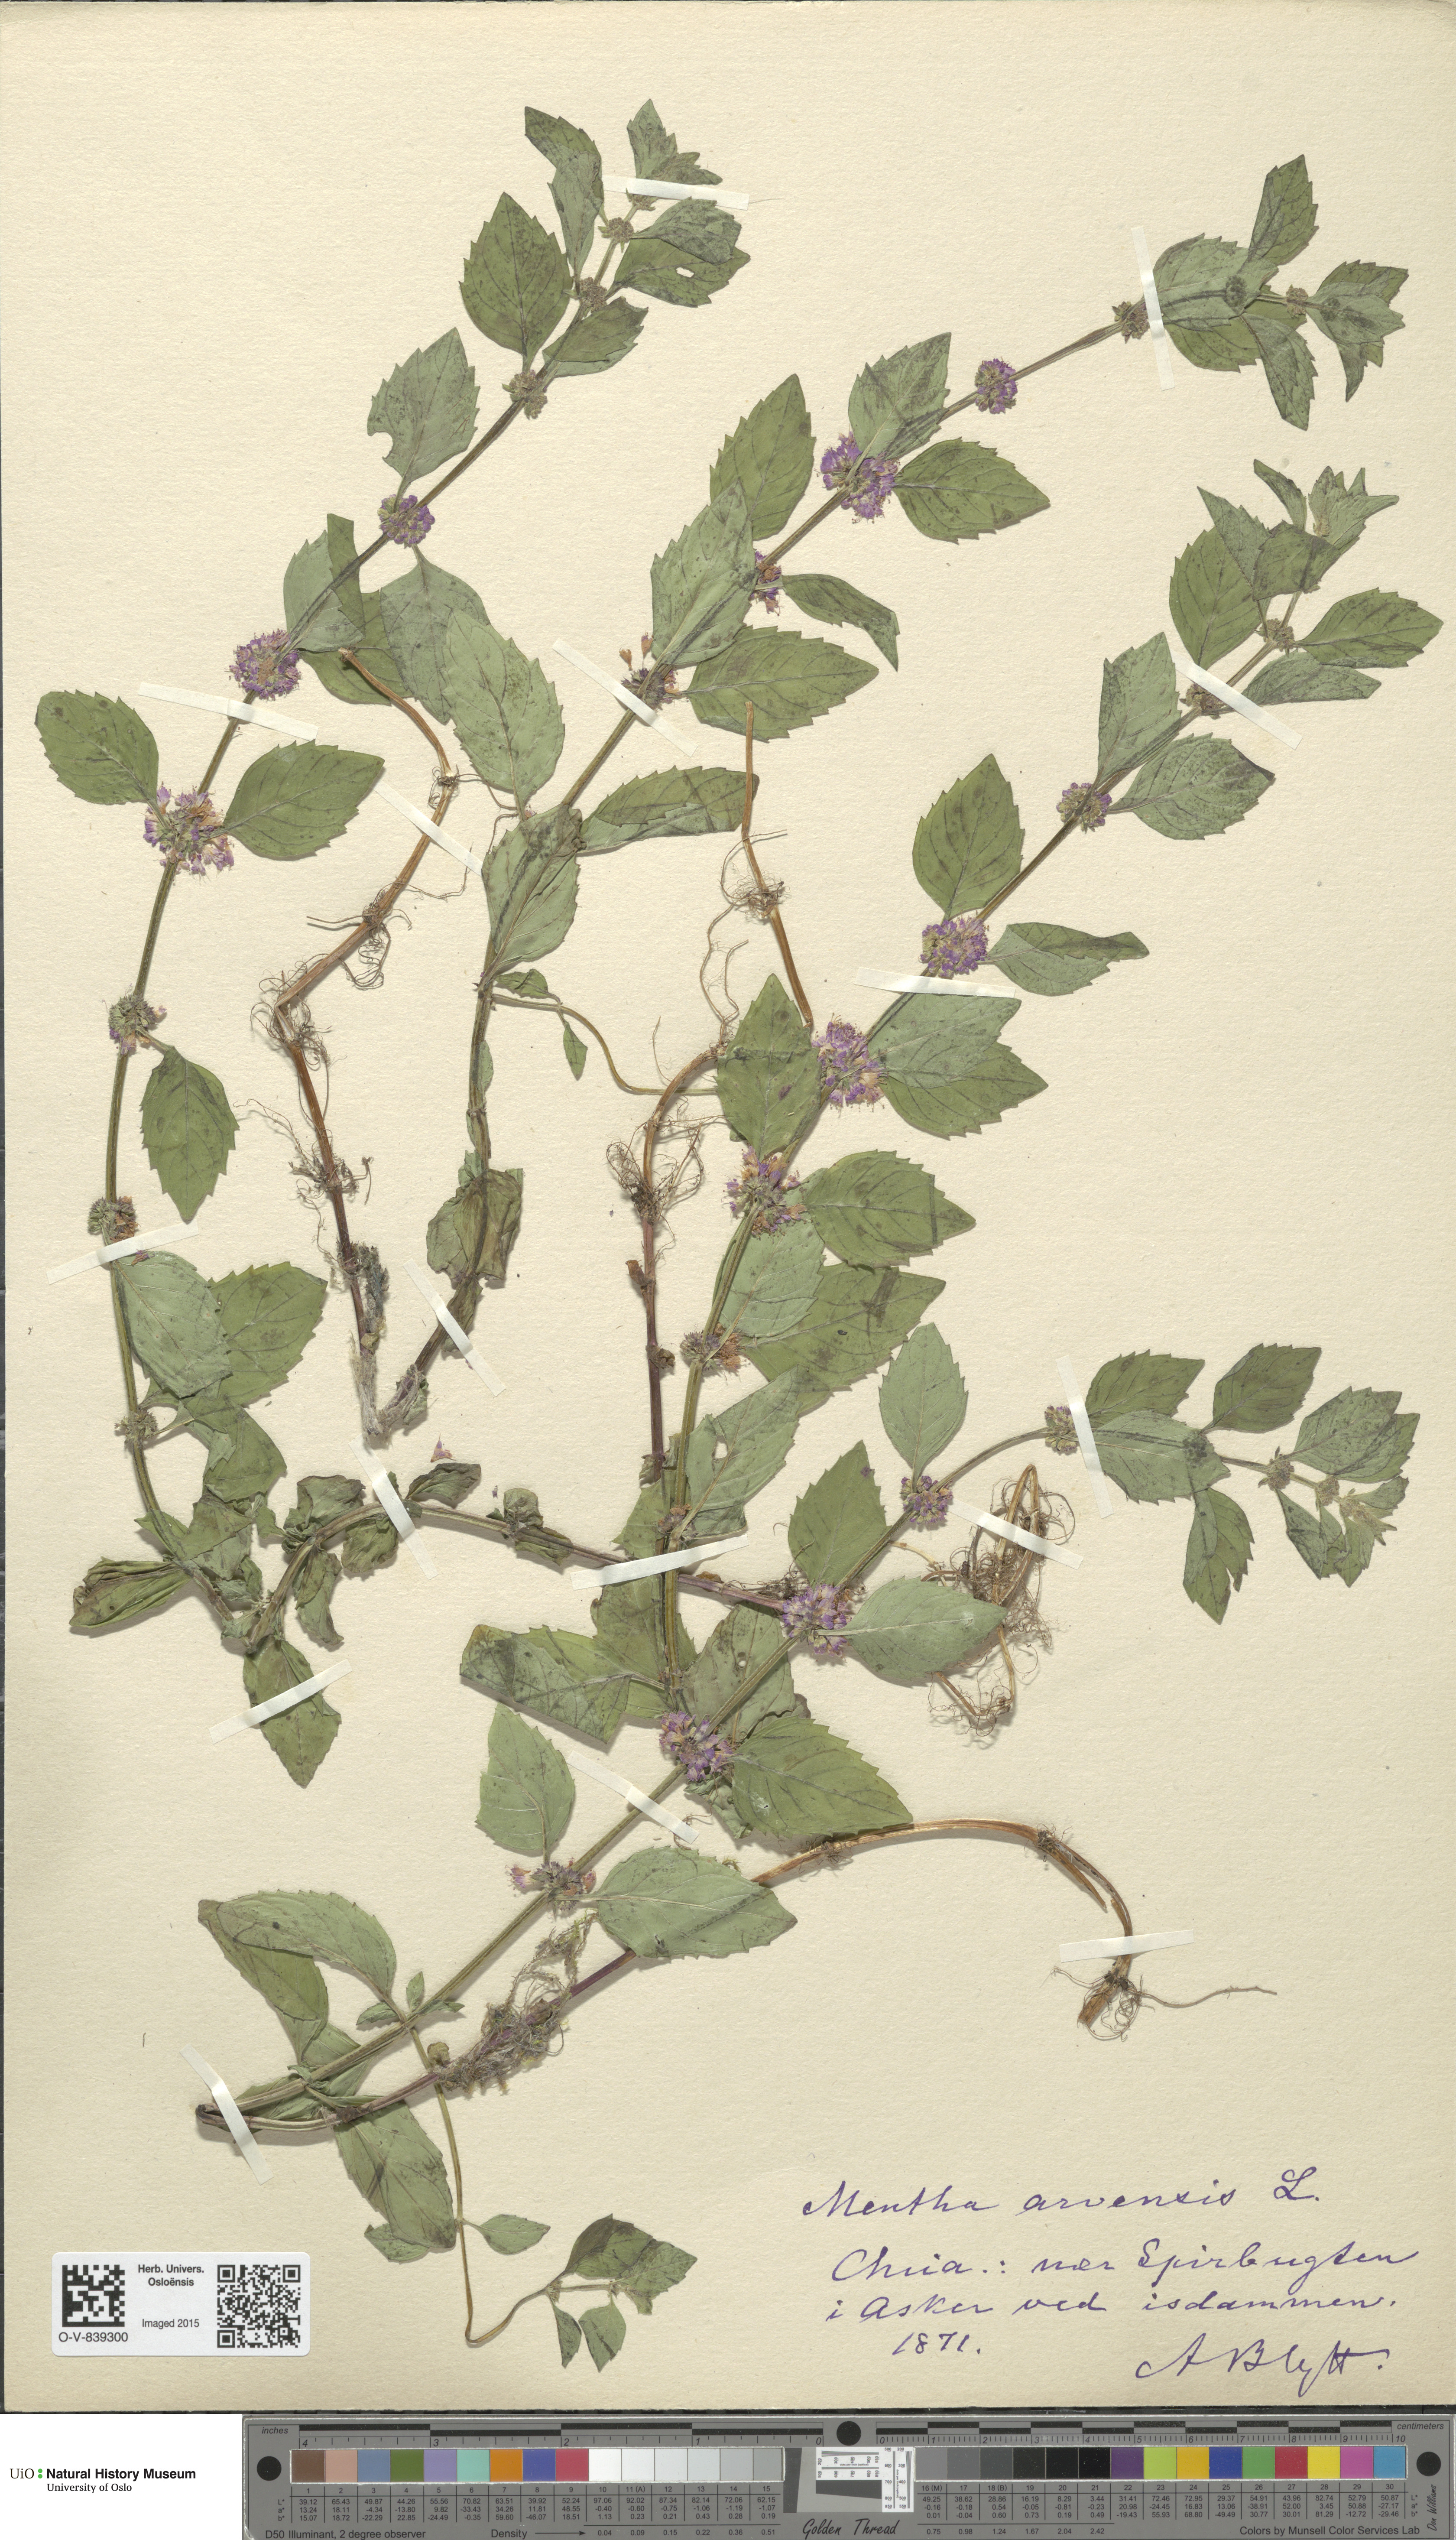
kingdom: Plantae
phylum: Tracheophyta
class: Magnoliopsida
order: Lamiales
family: Lamiaceae
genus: Mentha
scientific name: Mentha arvensis
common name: Corn mint
